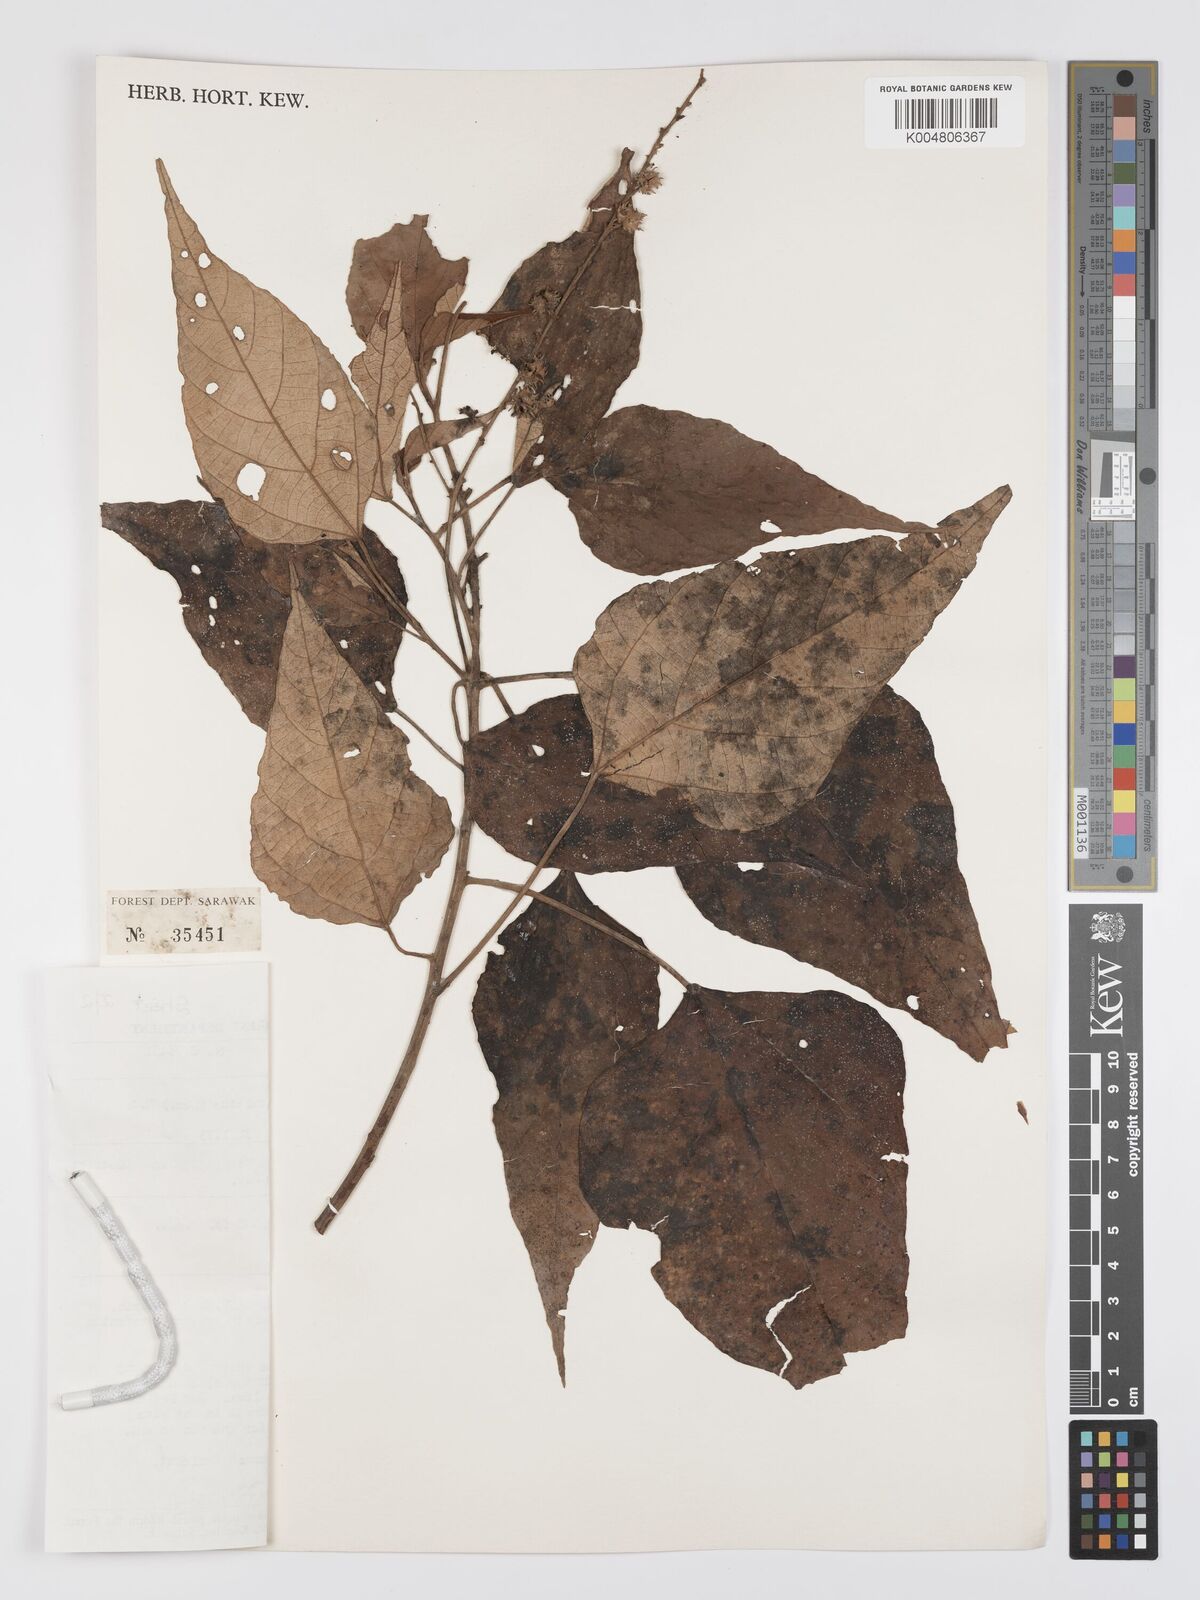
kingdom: Plantae
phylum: Tracheophyta
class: Magnoliopsida
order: Malpighiales
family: Euphorbiaceae
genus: Mallotus
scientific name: Mallotus paniculatus
